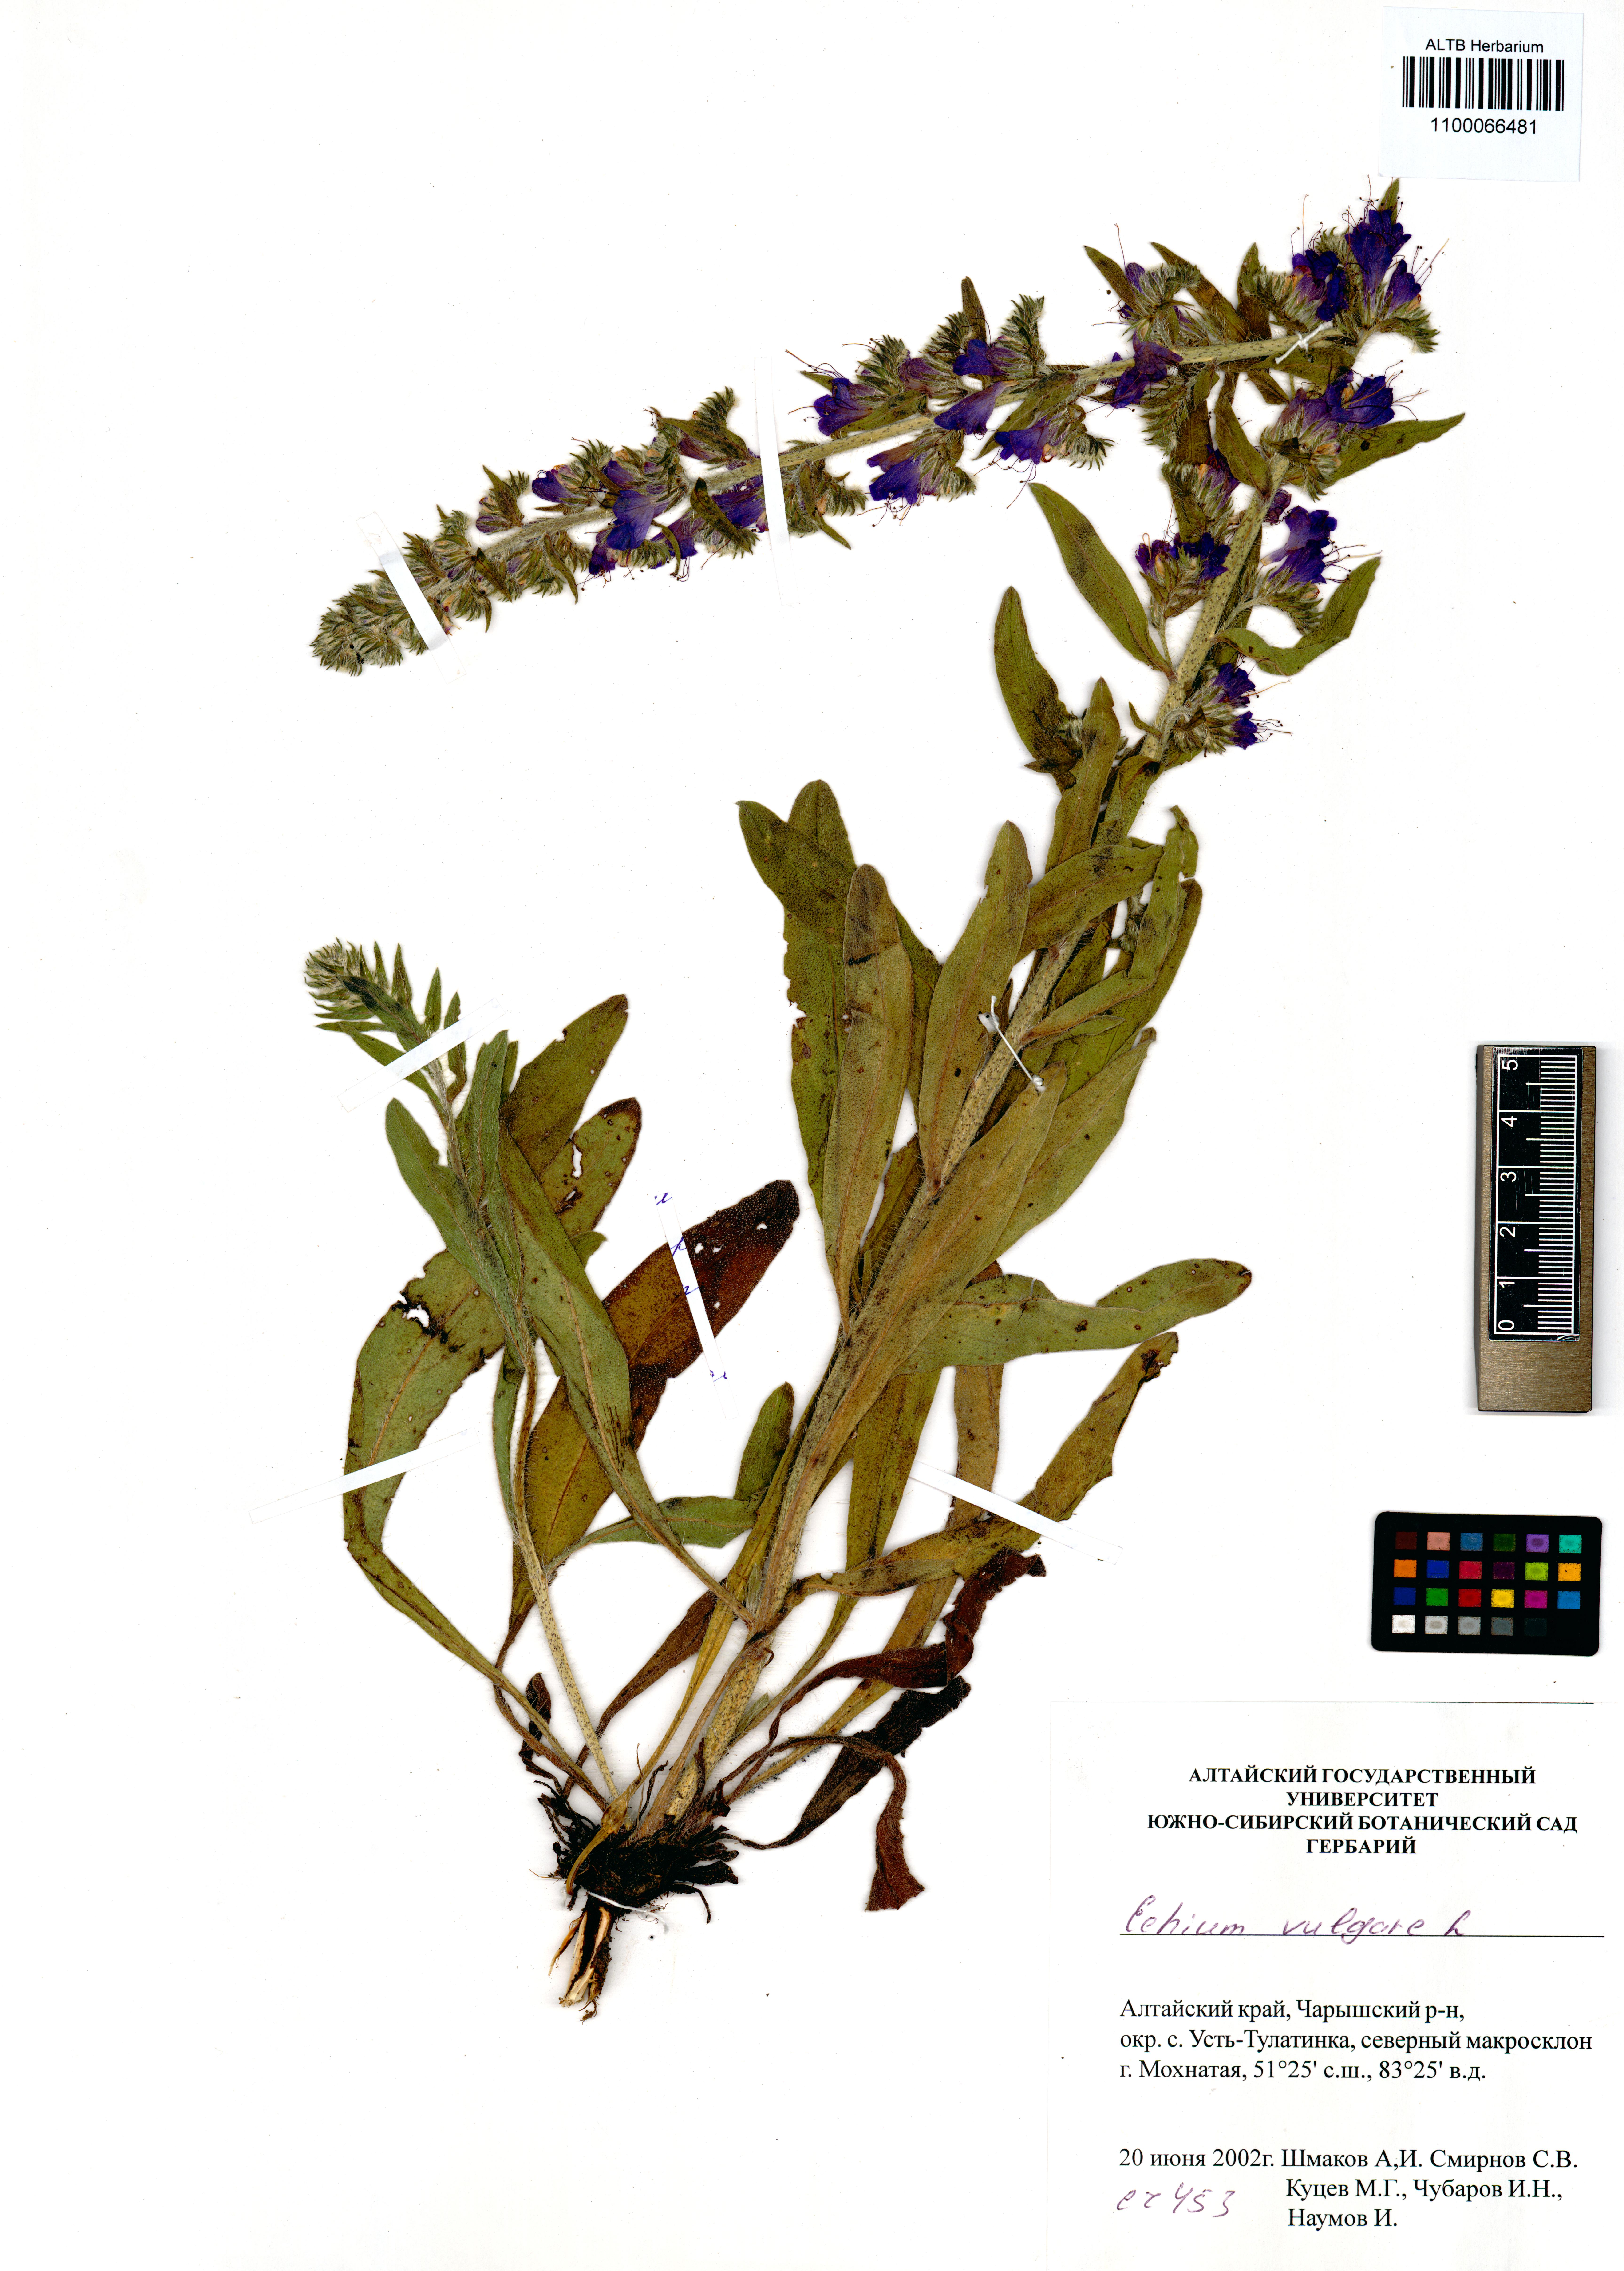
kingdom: Plantae
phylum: Tracheophyta
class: Magnoliopsida
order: Boraginales
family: Boraginaceae
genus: Echium
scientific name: Echium vulgare
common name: Common viper's bugloss
